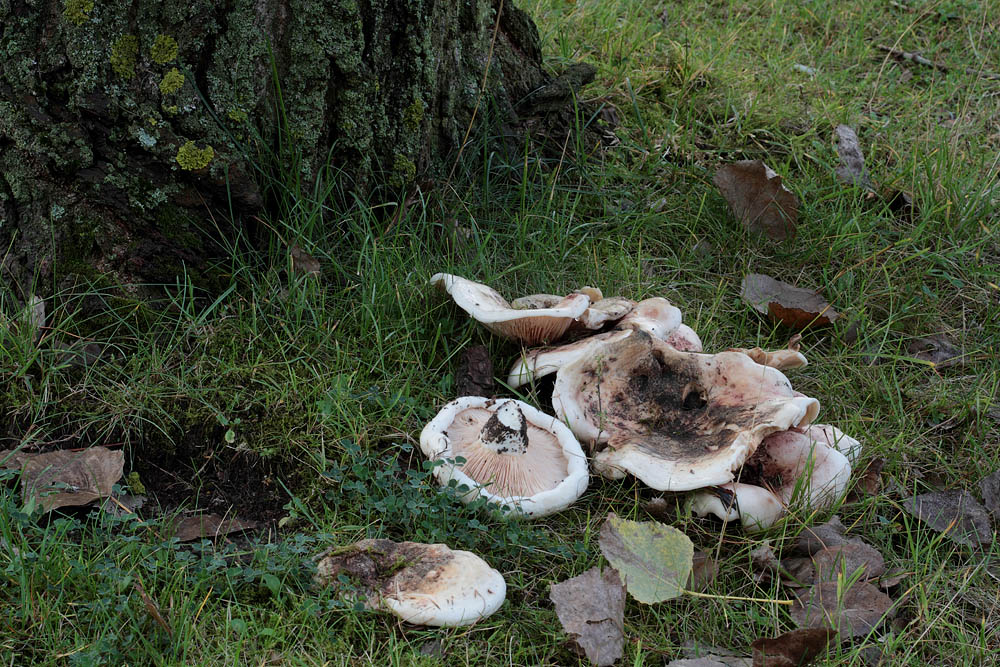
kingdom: Fungi
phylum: Basidiomycota
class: Agaricomycetes
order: Russulales
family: Russulaceae
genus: Lactarius
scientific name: Lactarius controversus
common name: rosabladet mælkehat
